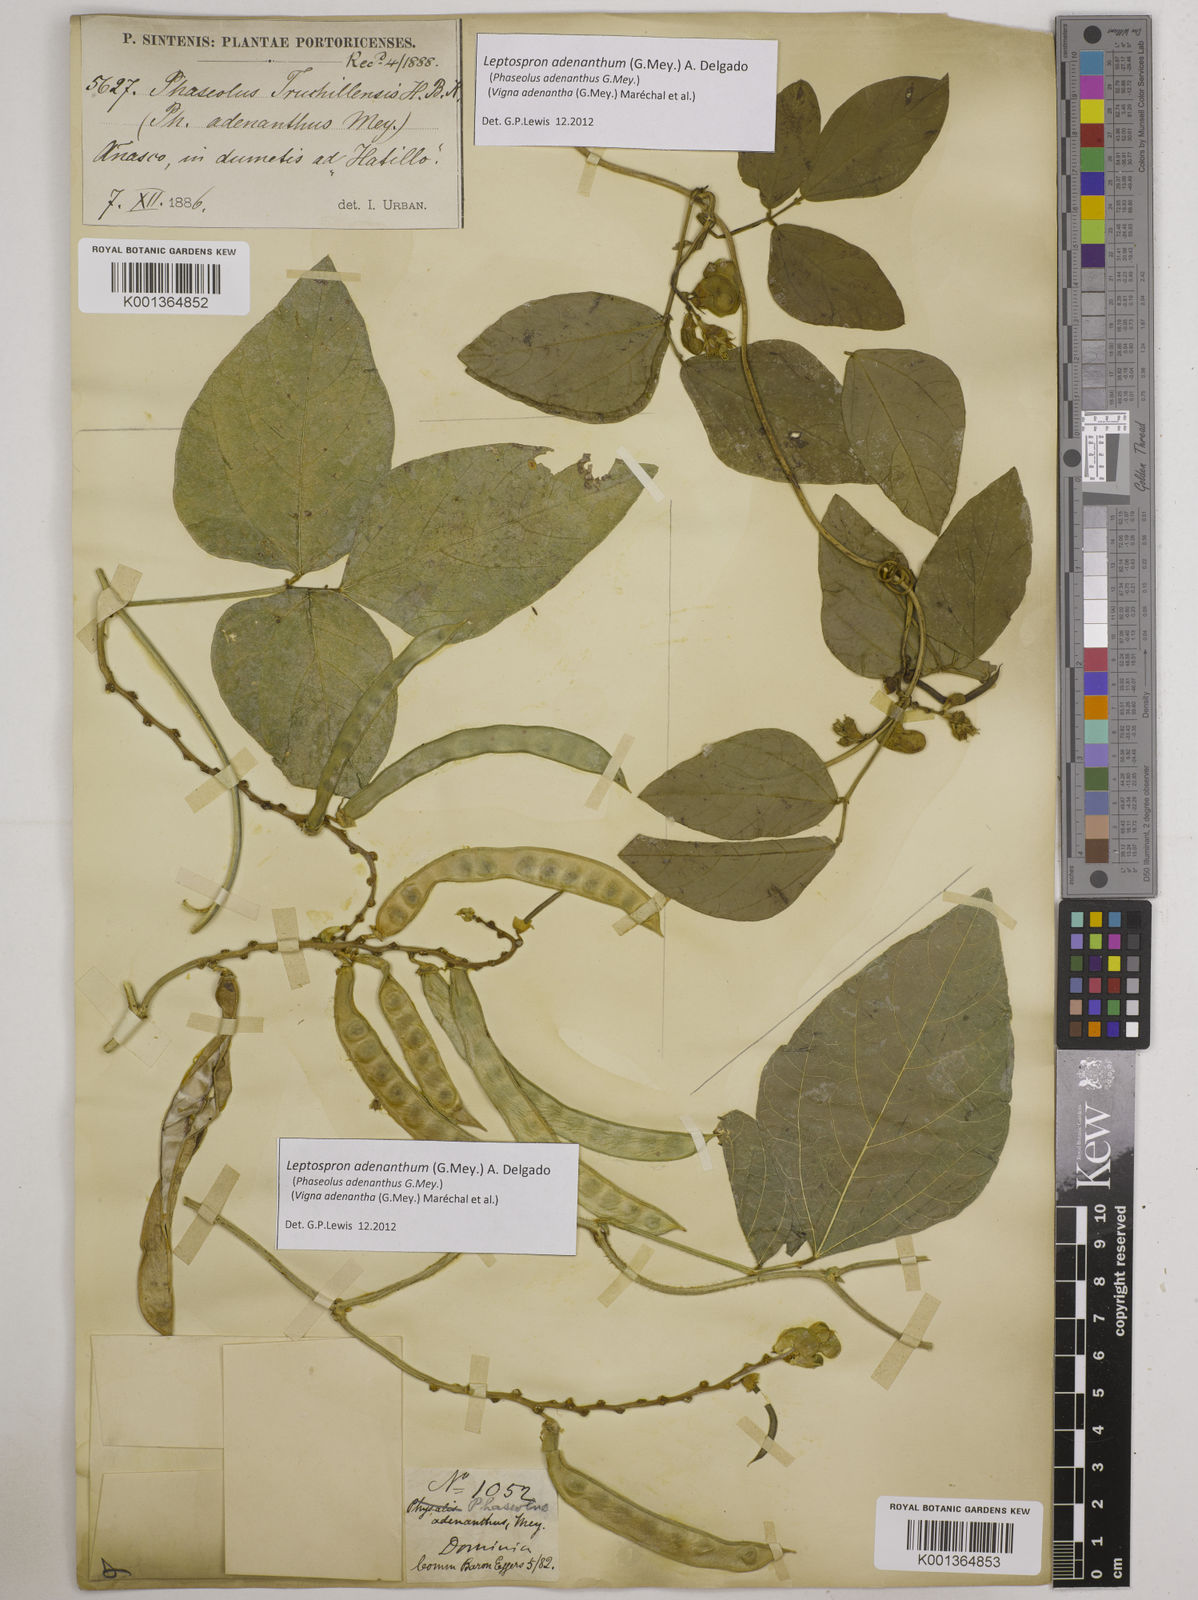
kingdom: Plantae
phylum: Tracheophyta
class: Magnoliopsida
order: Fabales
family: Fabaceae
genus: Leptospron
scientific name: Leptospron adenanthum
